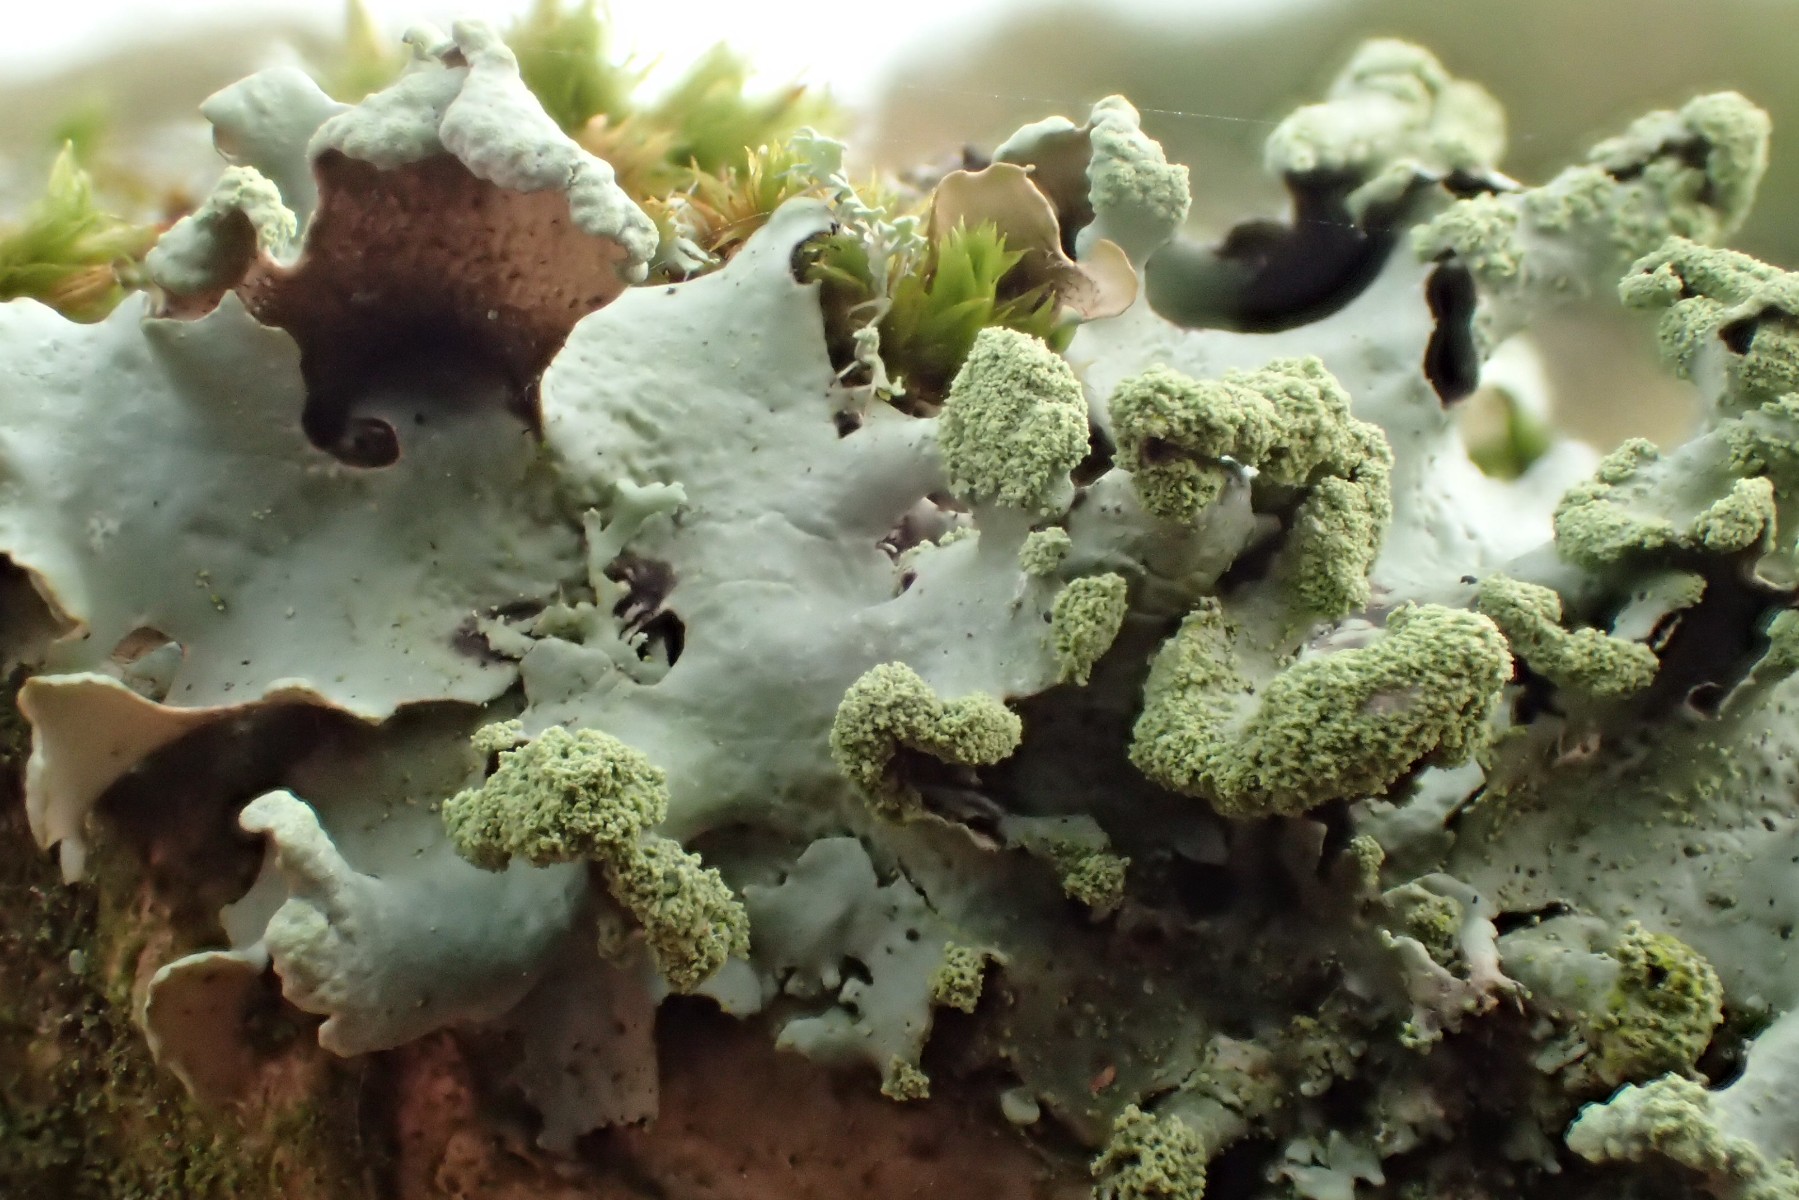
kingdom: Fungi
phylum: Ascomycota
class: Lecanoromycetes
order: Lecanorales
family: Parmeliaceae
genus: Hypotrachyna
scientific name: Hypotrachyna revoluta
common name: bleggrå skållav
